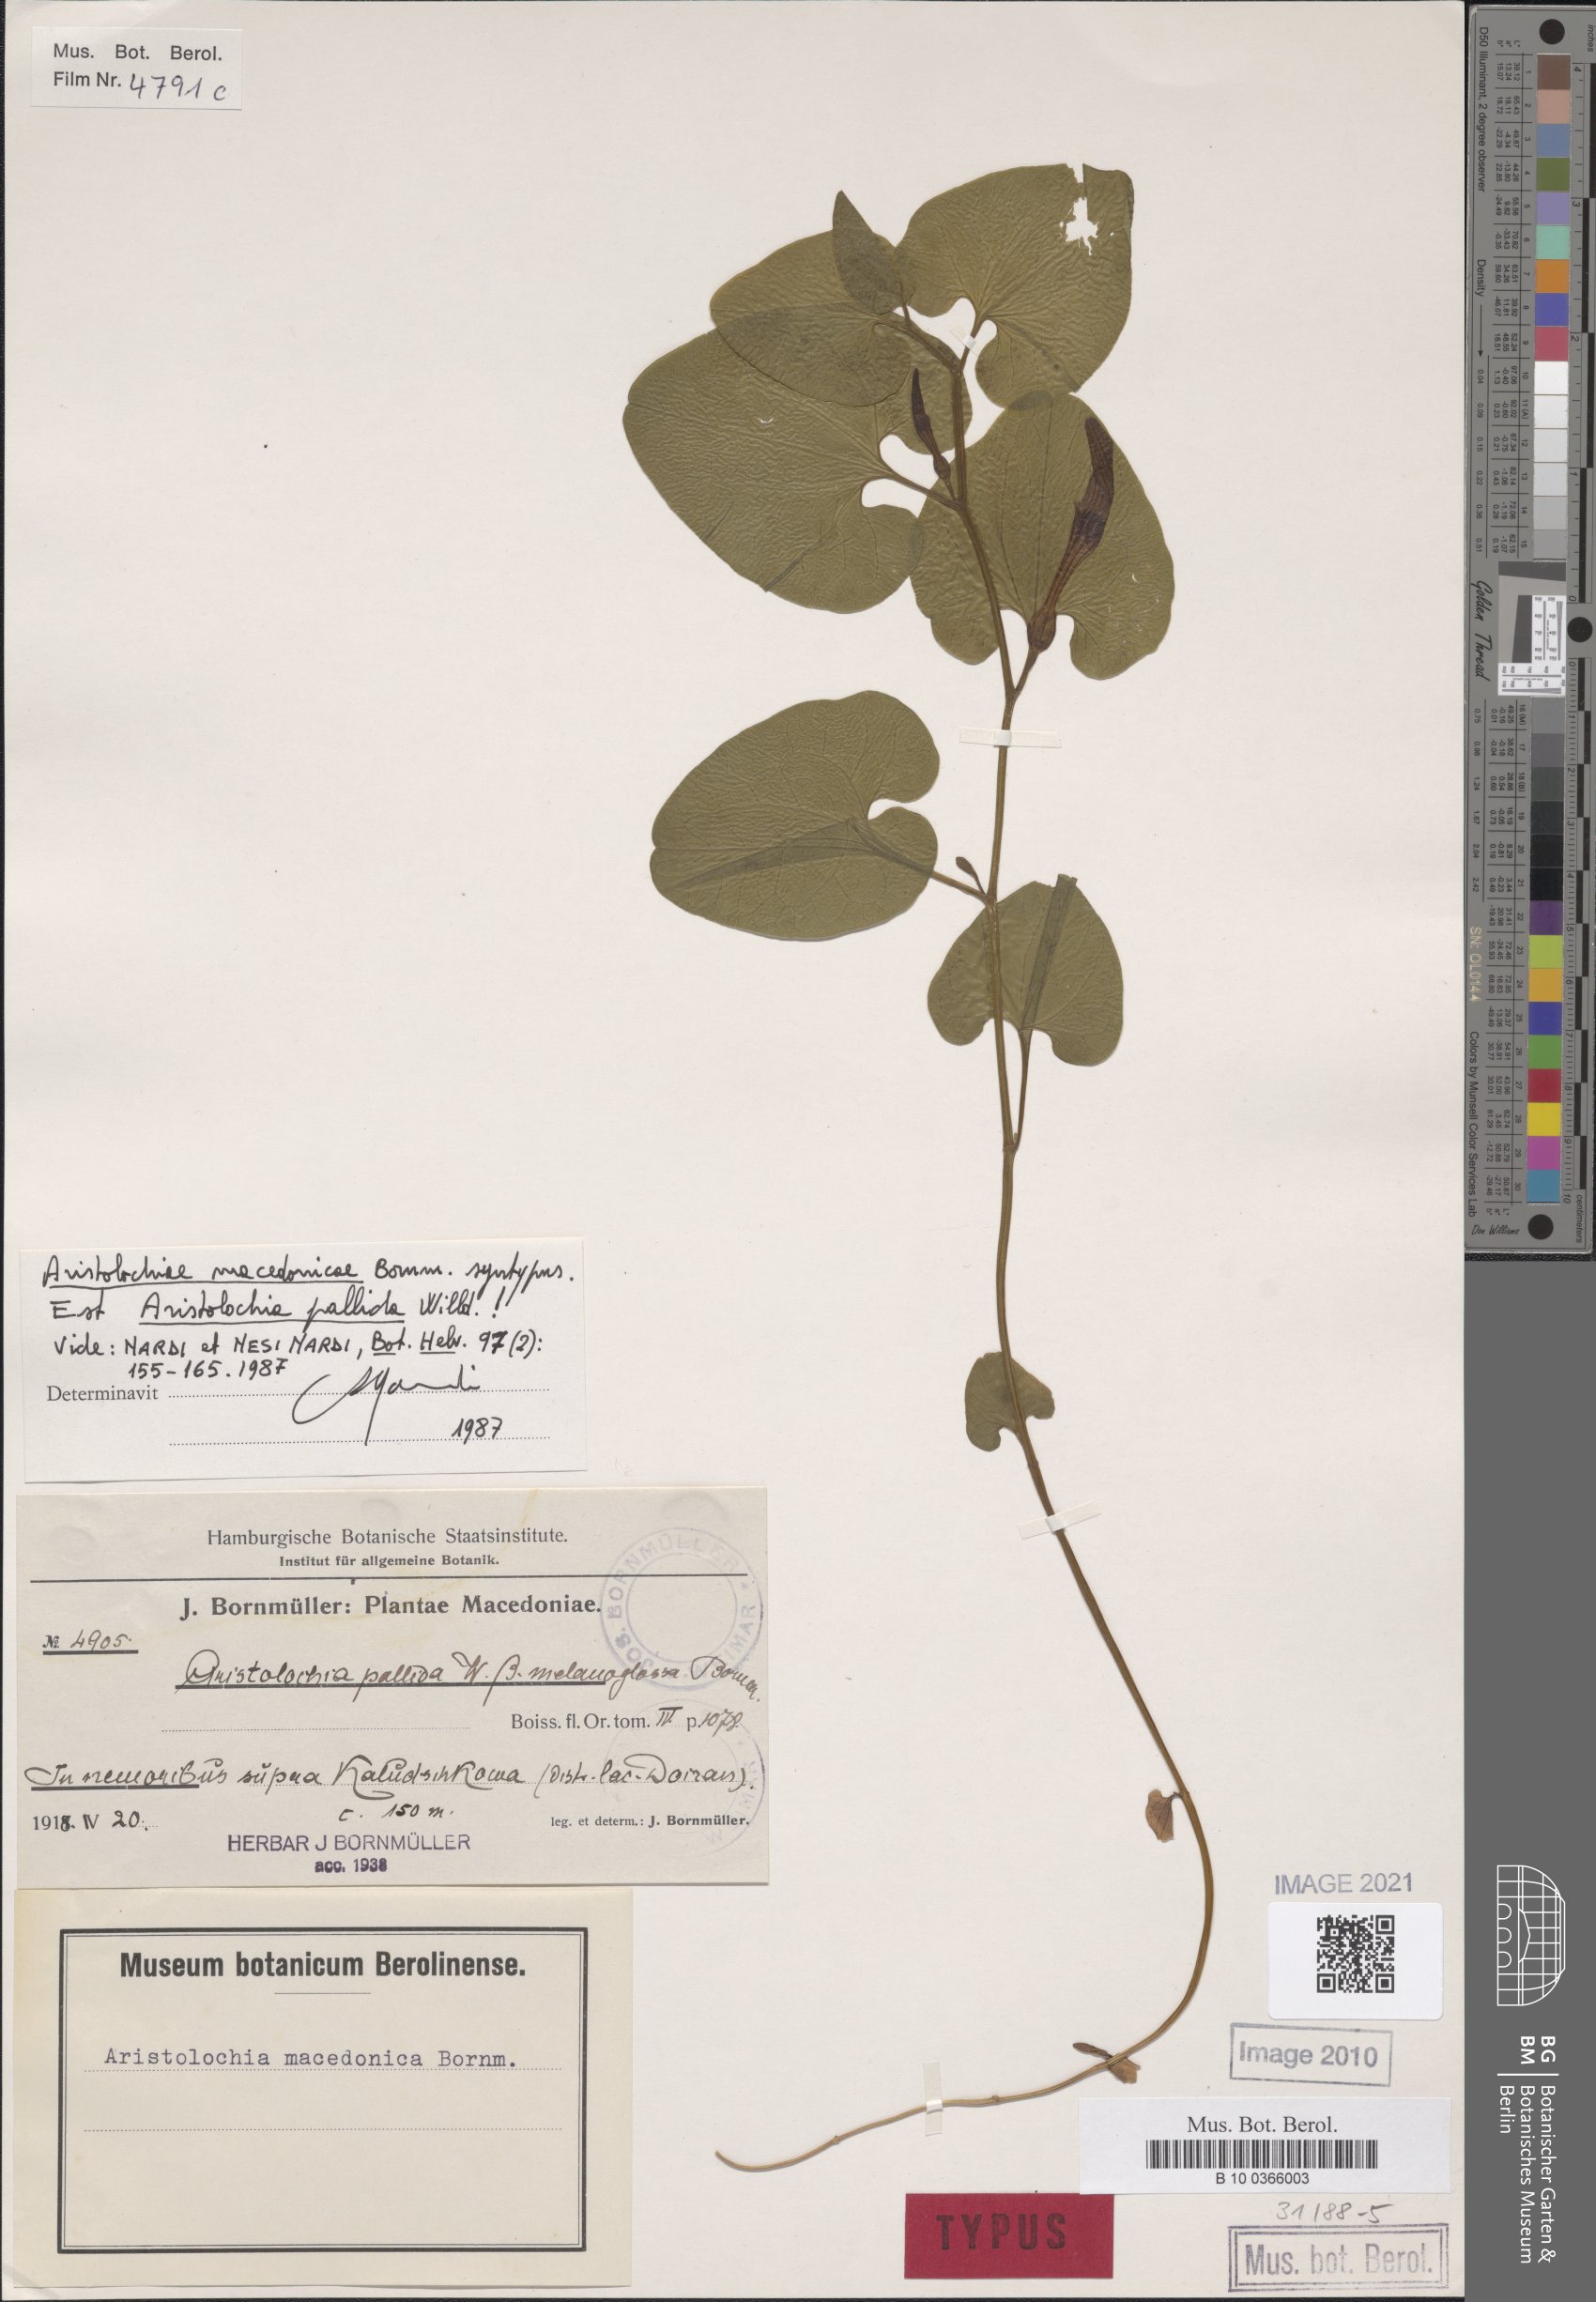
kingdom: Plantae
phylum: Tracheophyta
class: Magnoliopsida
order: Piperales
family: Aristolochiaceae
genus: Aristolochia
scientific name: Aristolochia pallida
